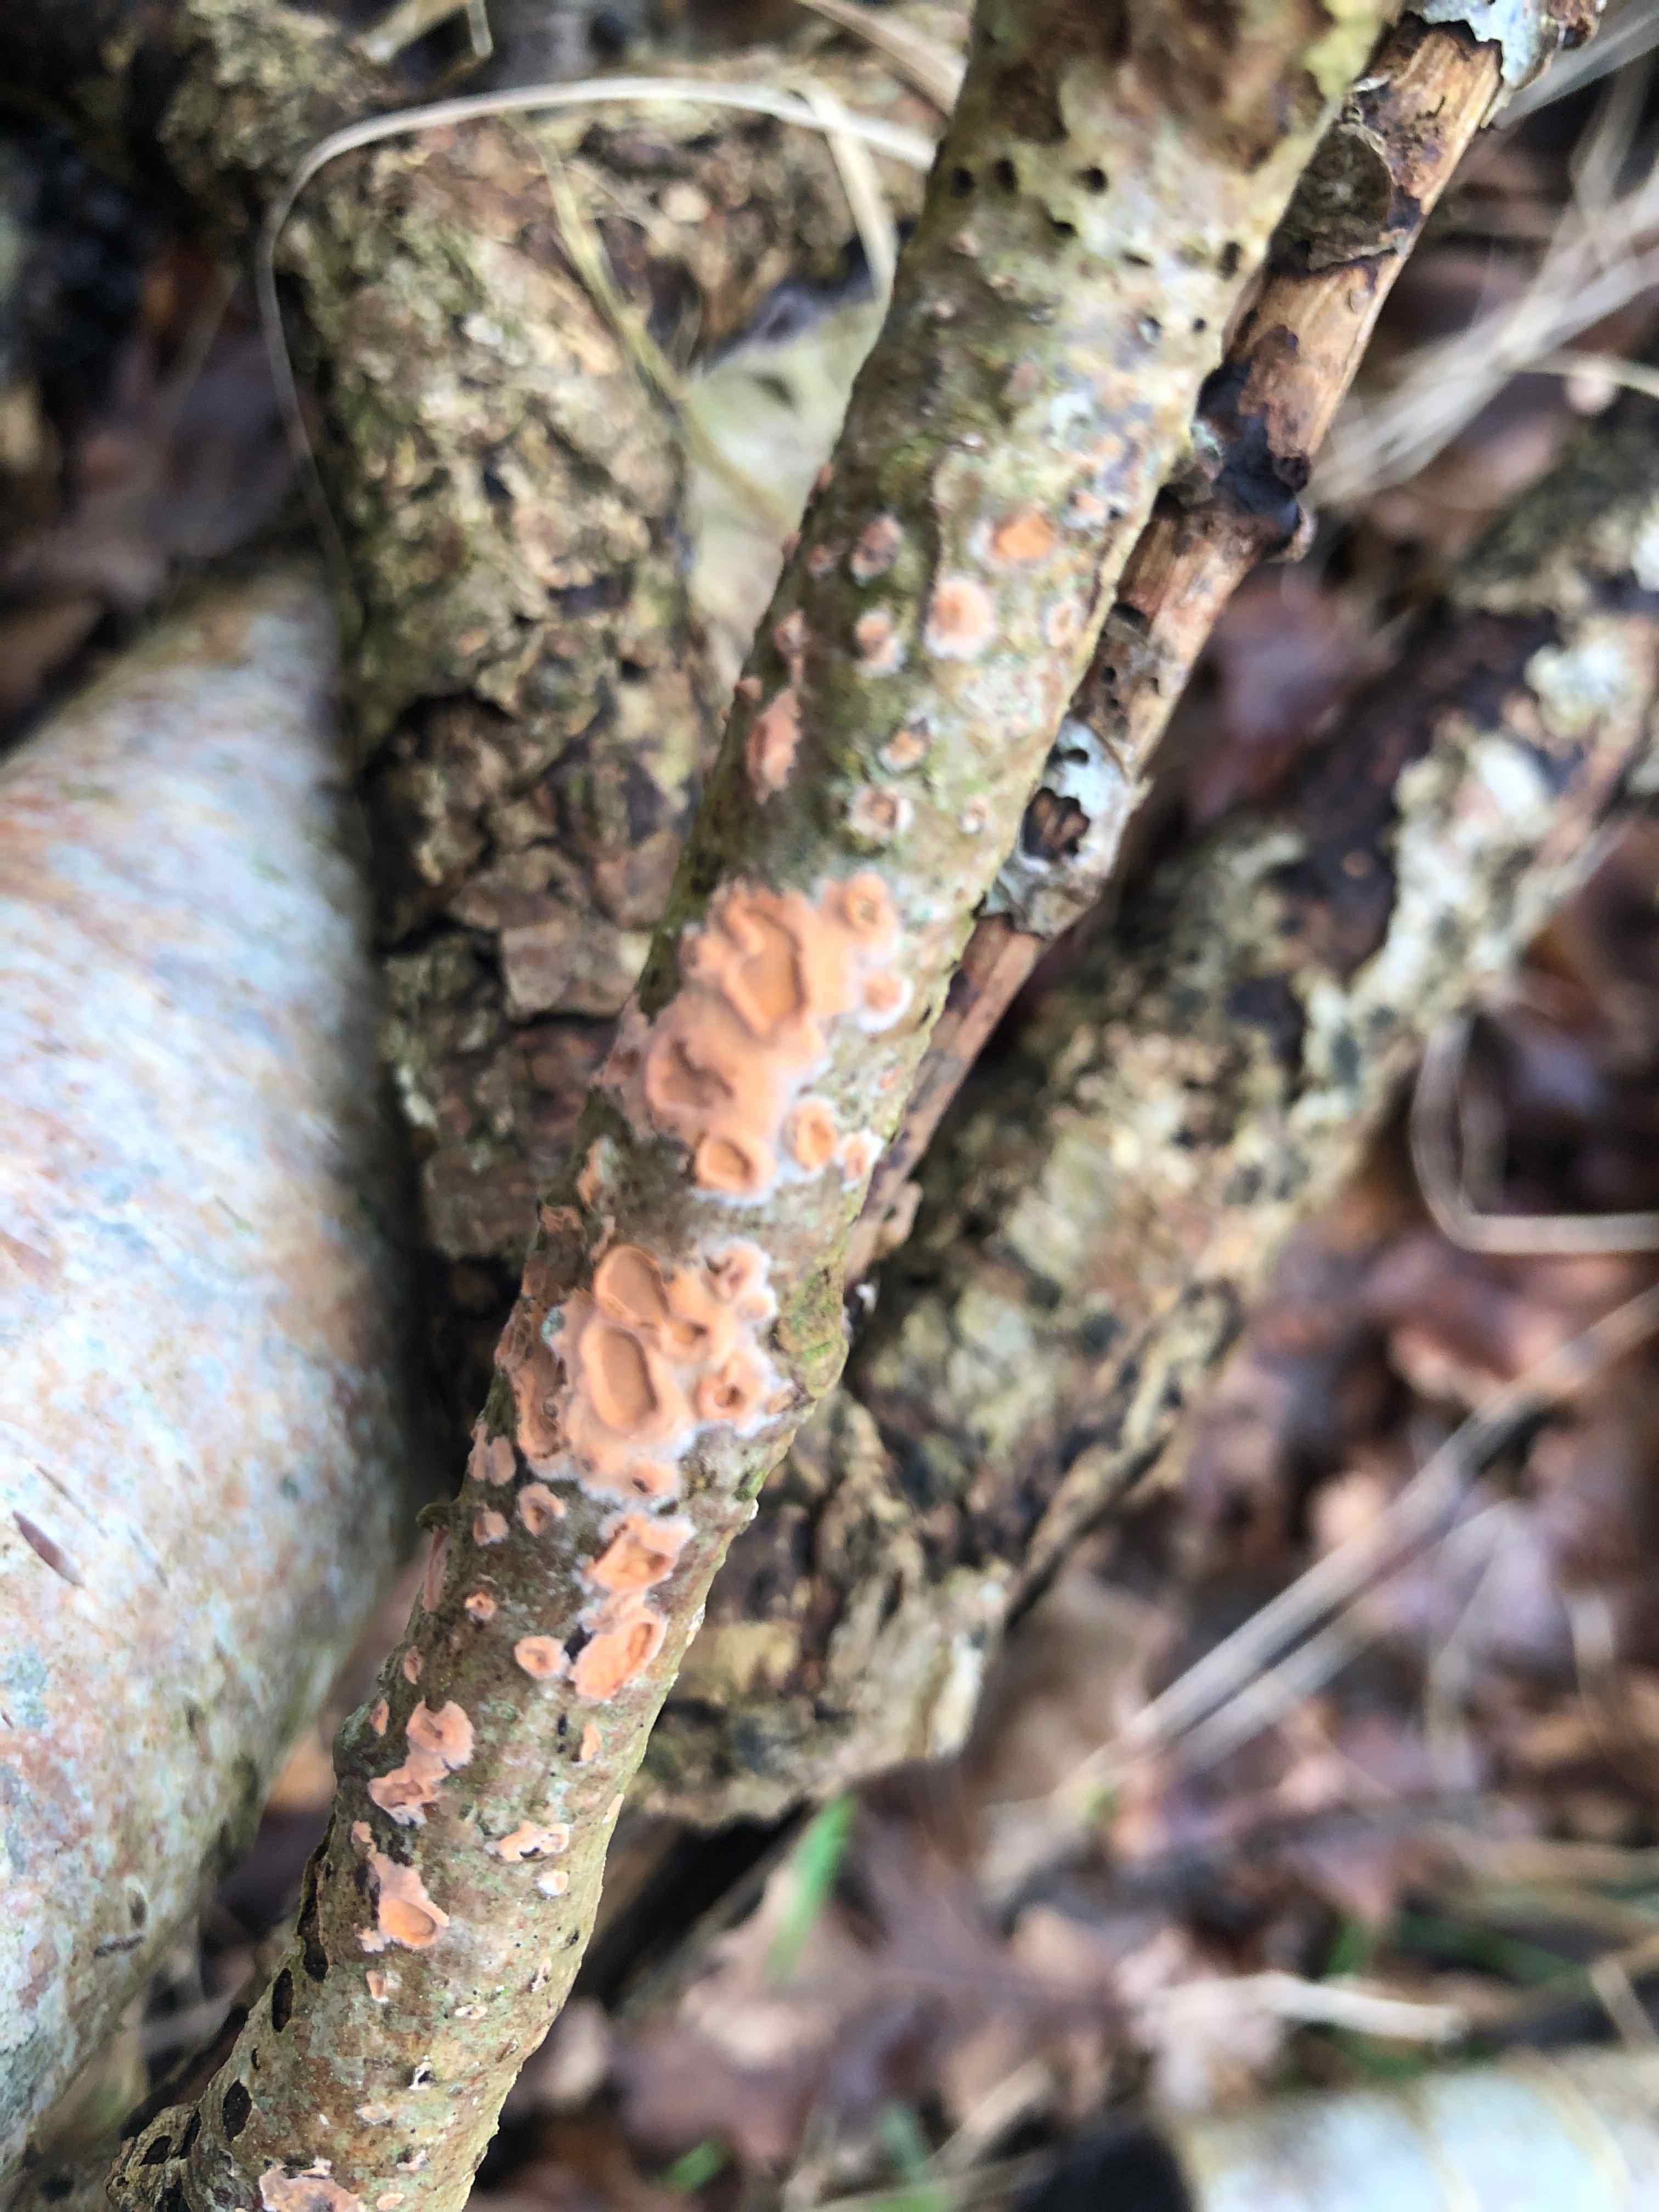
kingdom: Fungi
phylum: Basidiomycota
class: Agaricomycetes
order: Russulales
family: Peniophoraceae
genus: Peniophora
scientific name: Peniophora incarnata
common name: laksefarvet voksskind
